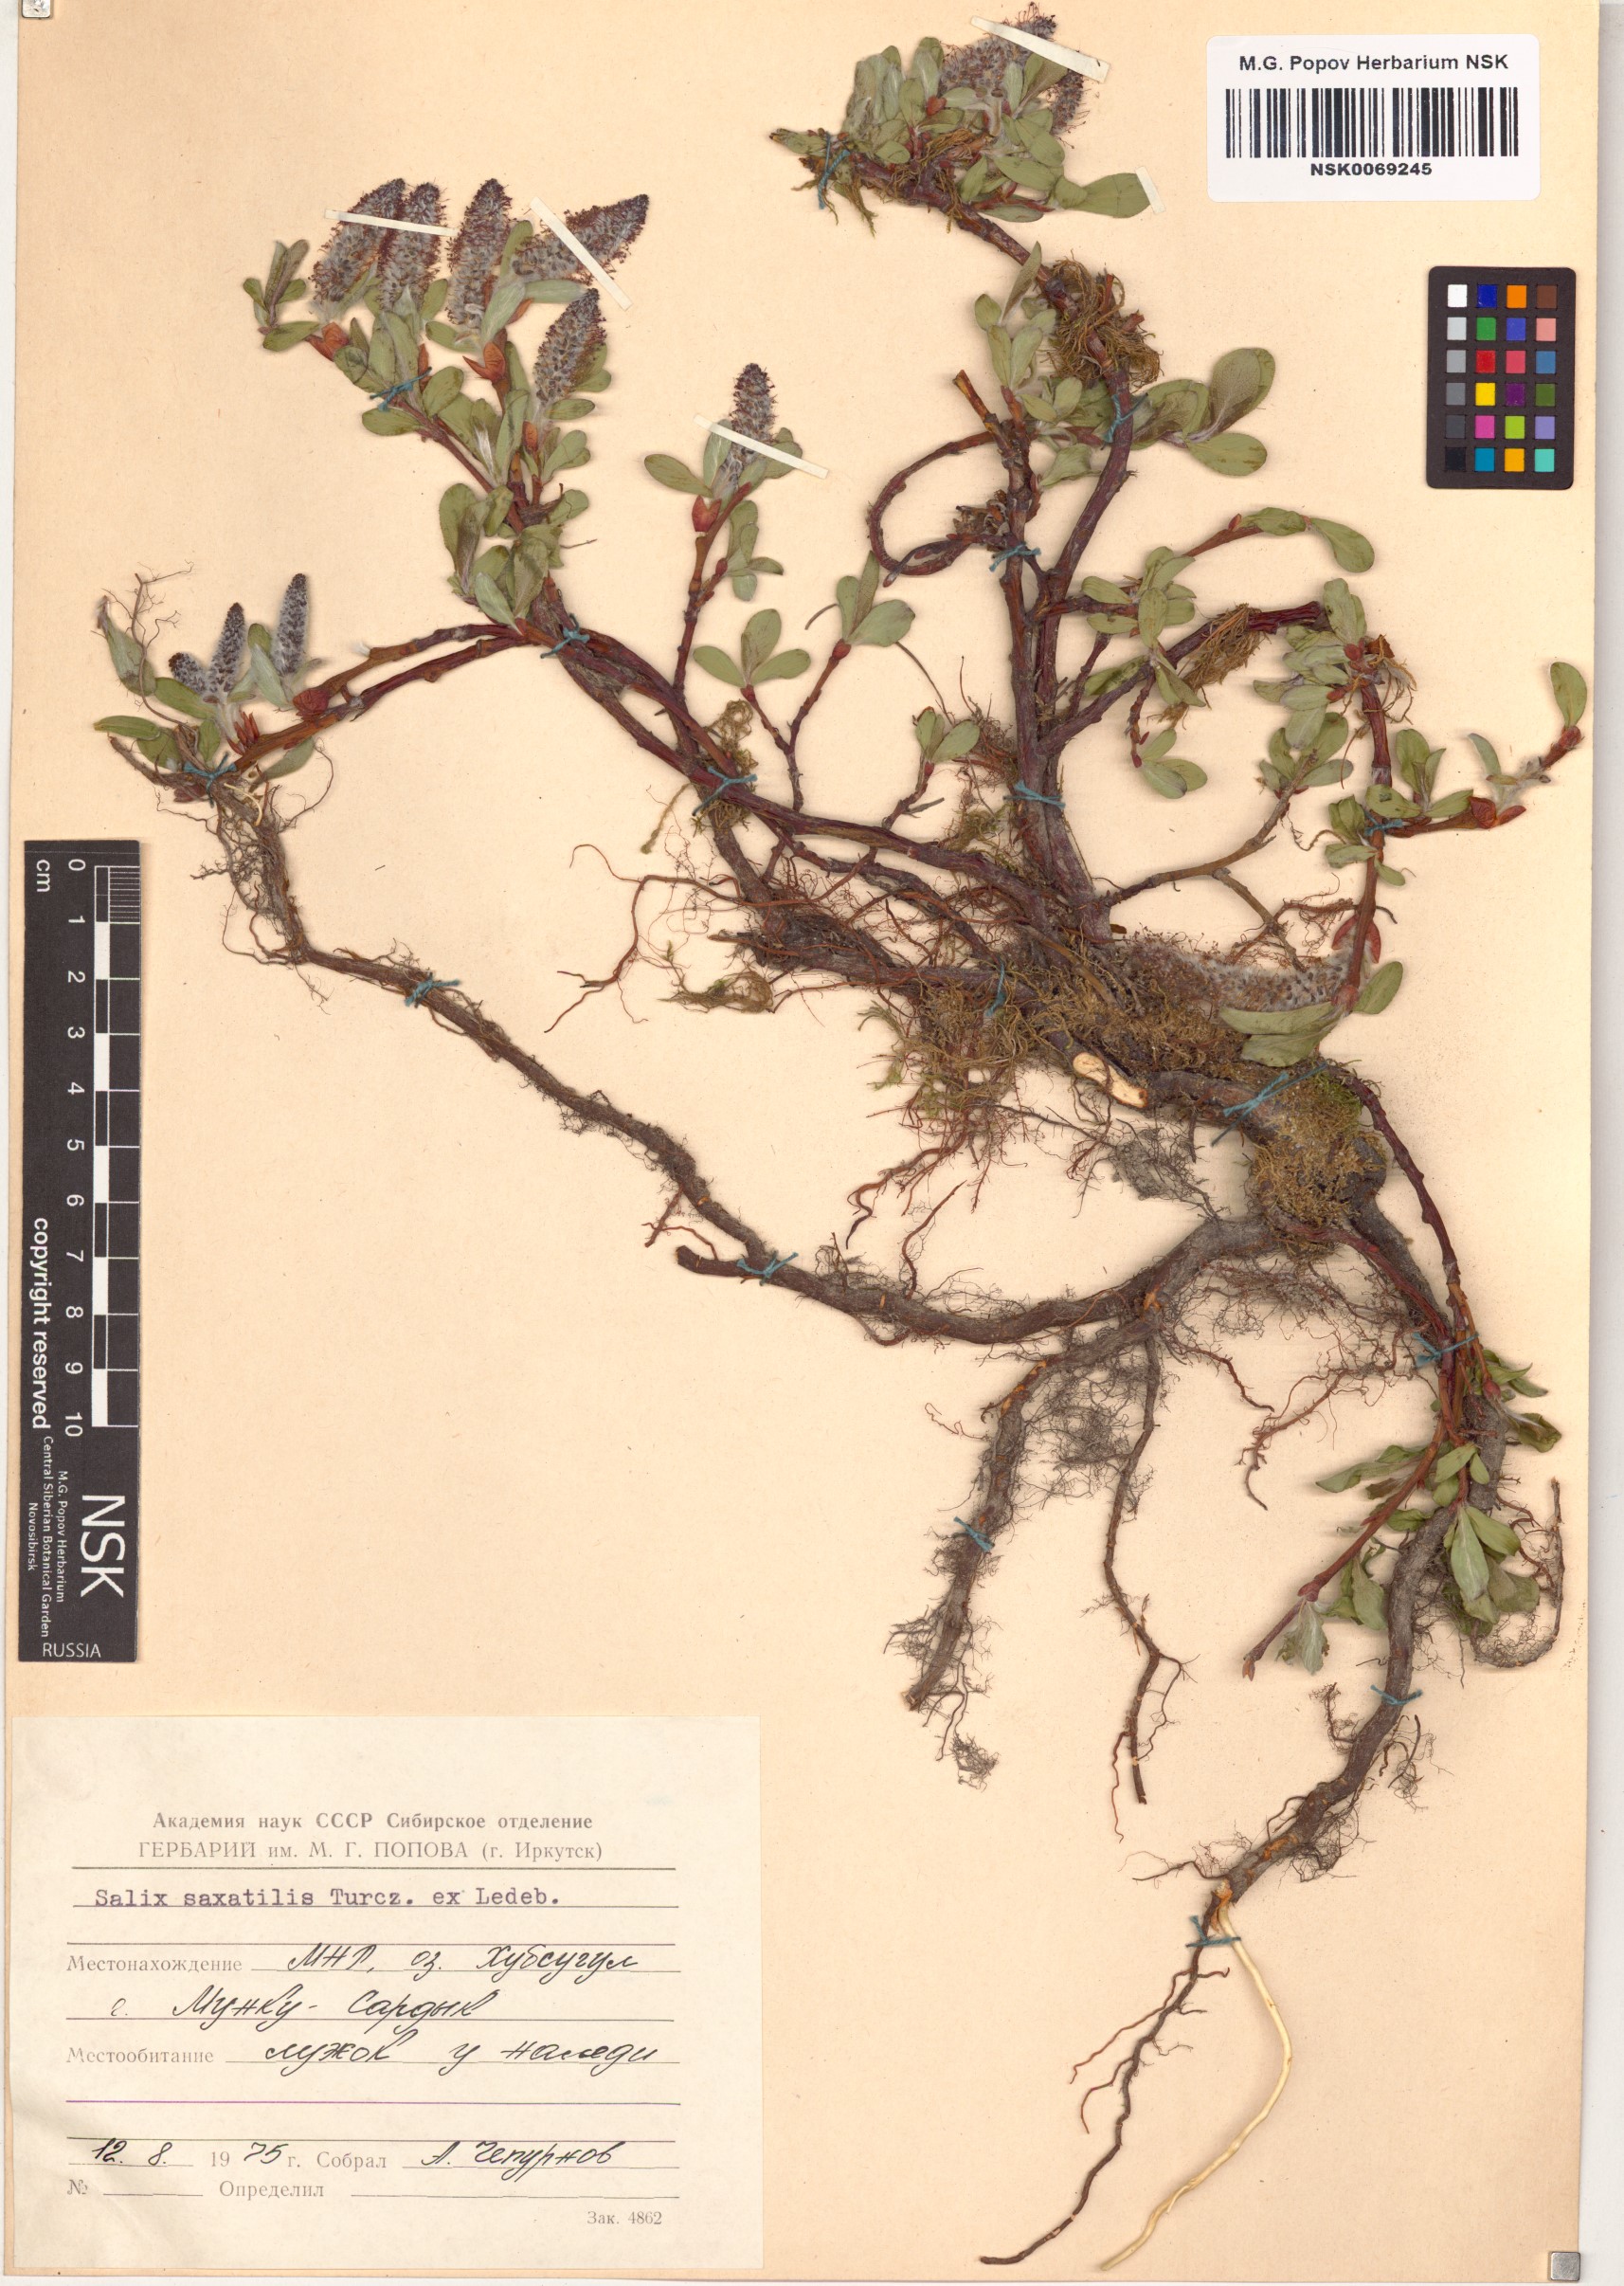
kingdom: Plantae
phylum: Tracheophyta
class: Magnoliopsida
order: Malpighiales
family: Salicaceae
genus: Salix
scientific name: Salix saxatilis
